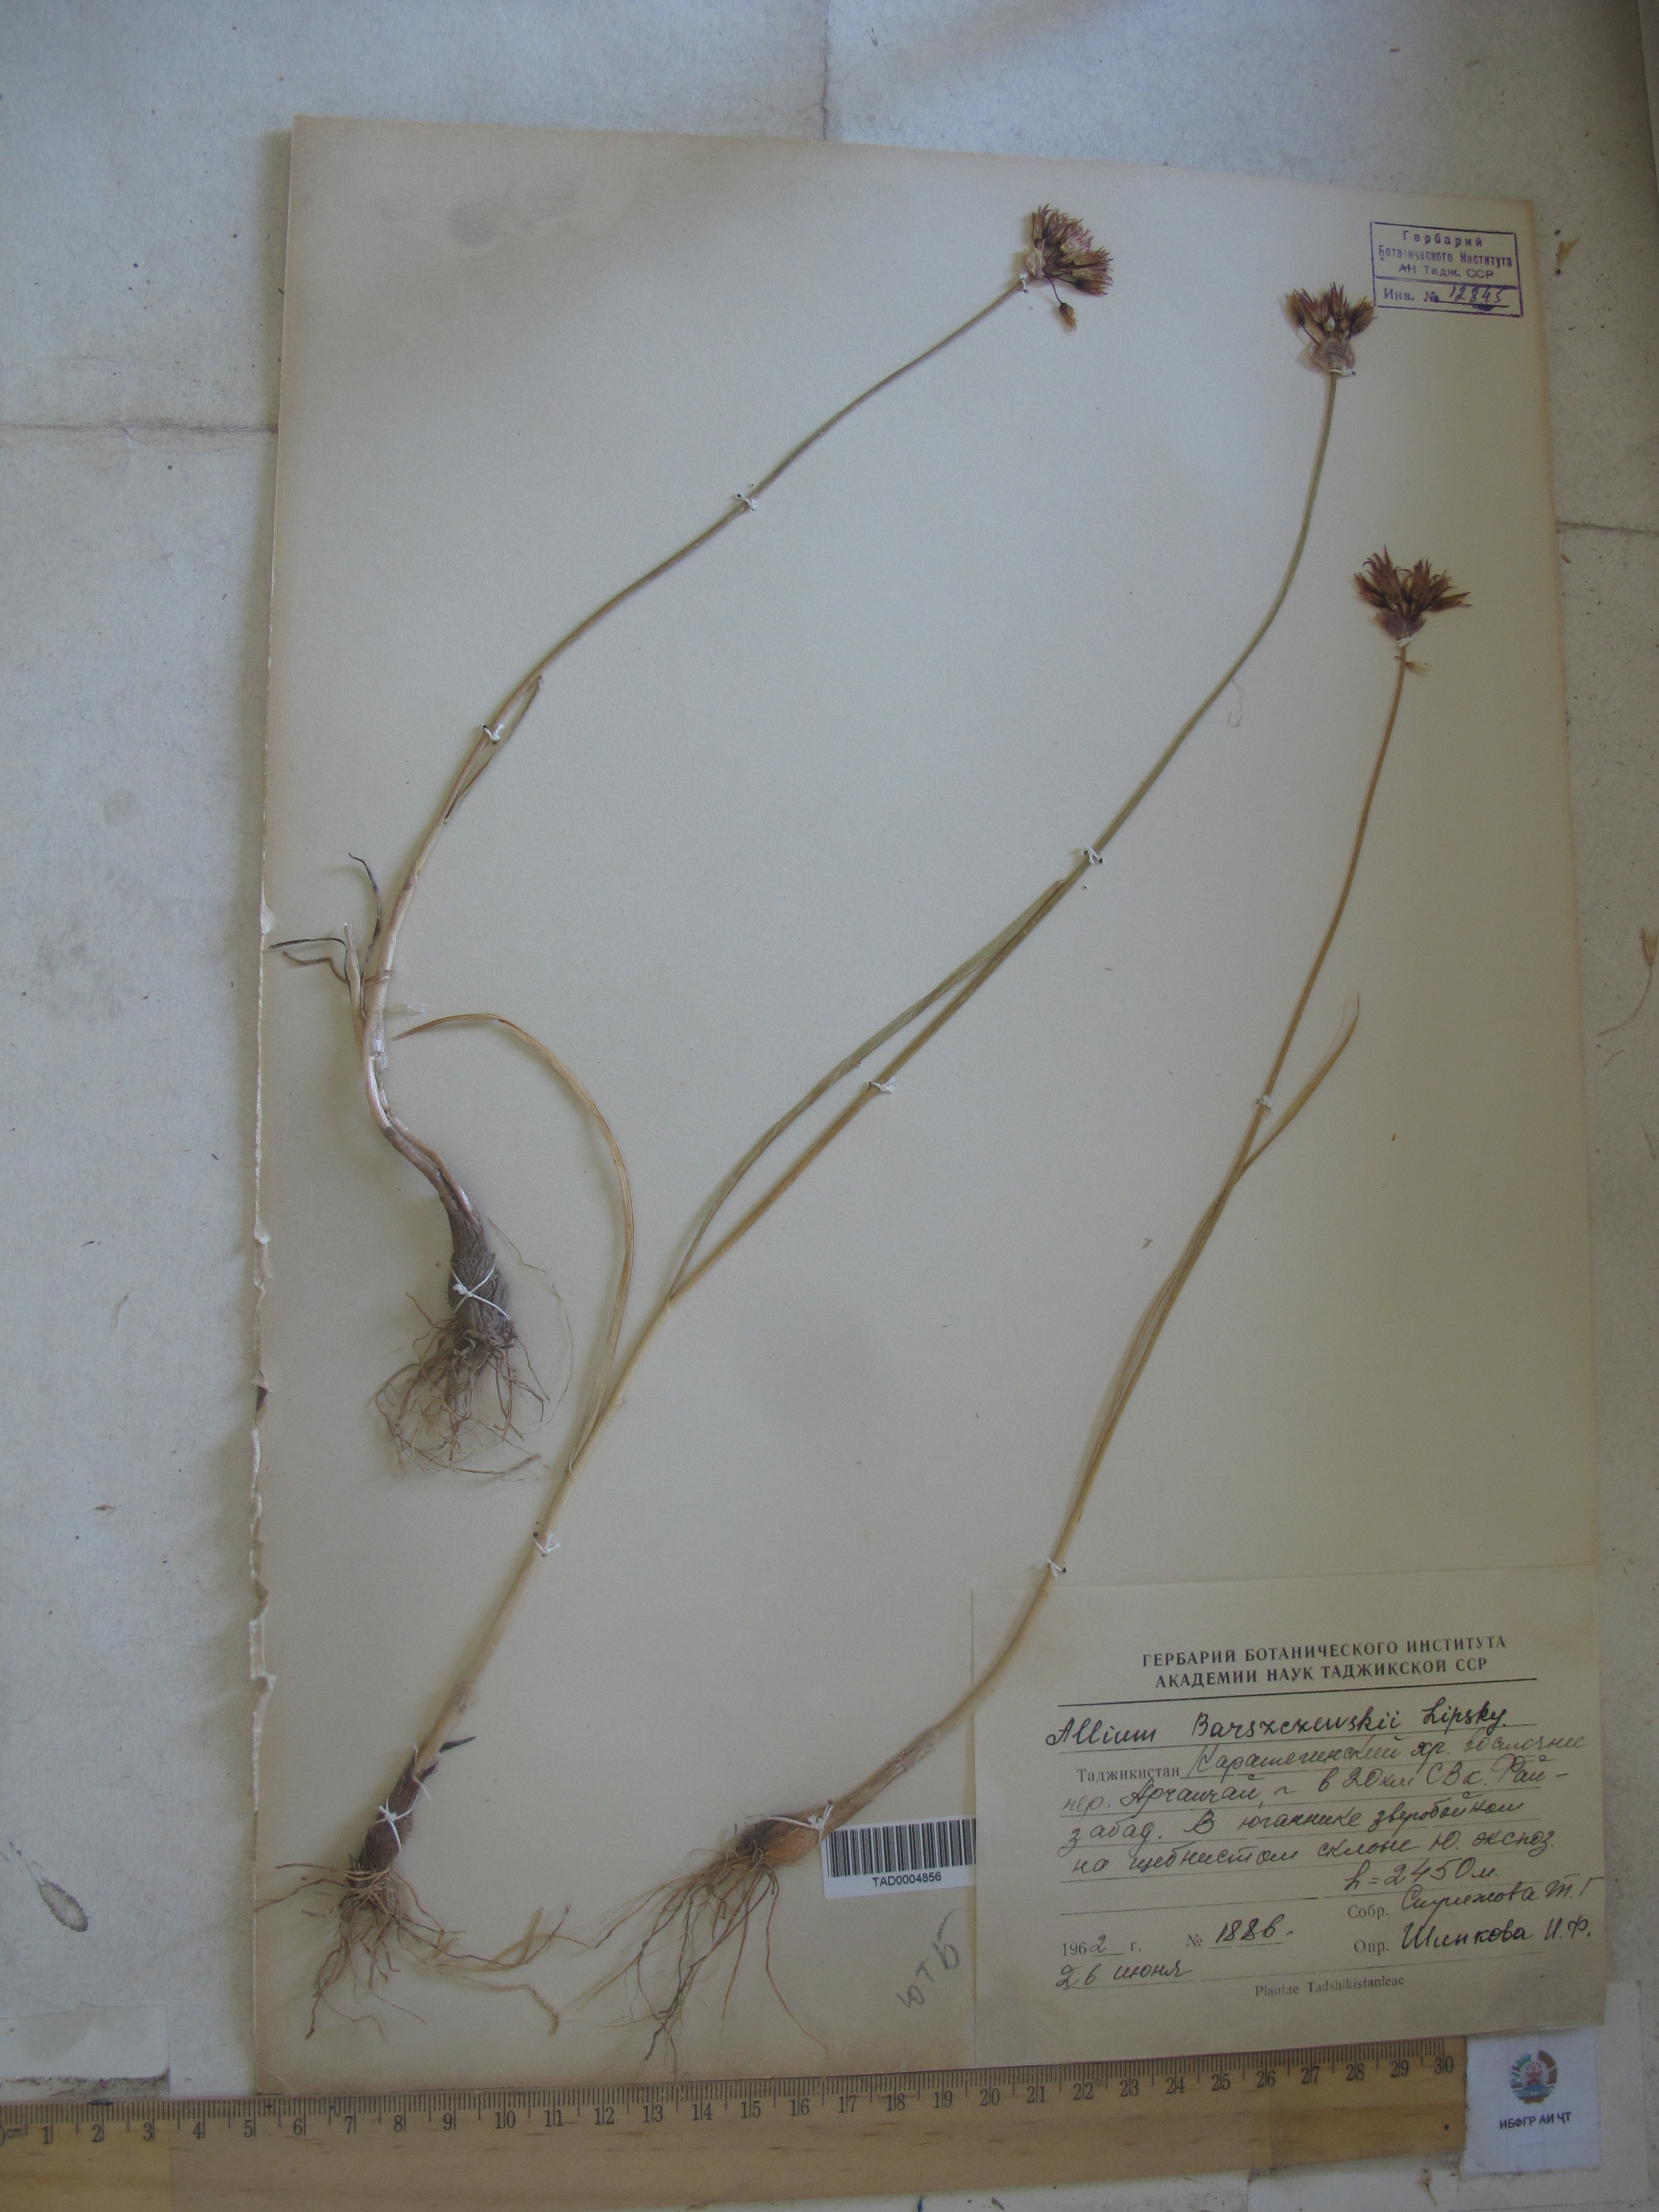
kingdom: Plantae
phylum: Tracheophyta
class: Liliopsida
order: Asparagales
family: Amaryllidaceae
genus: Allium
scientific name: Allium barsczewskii
